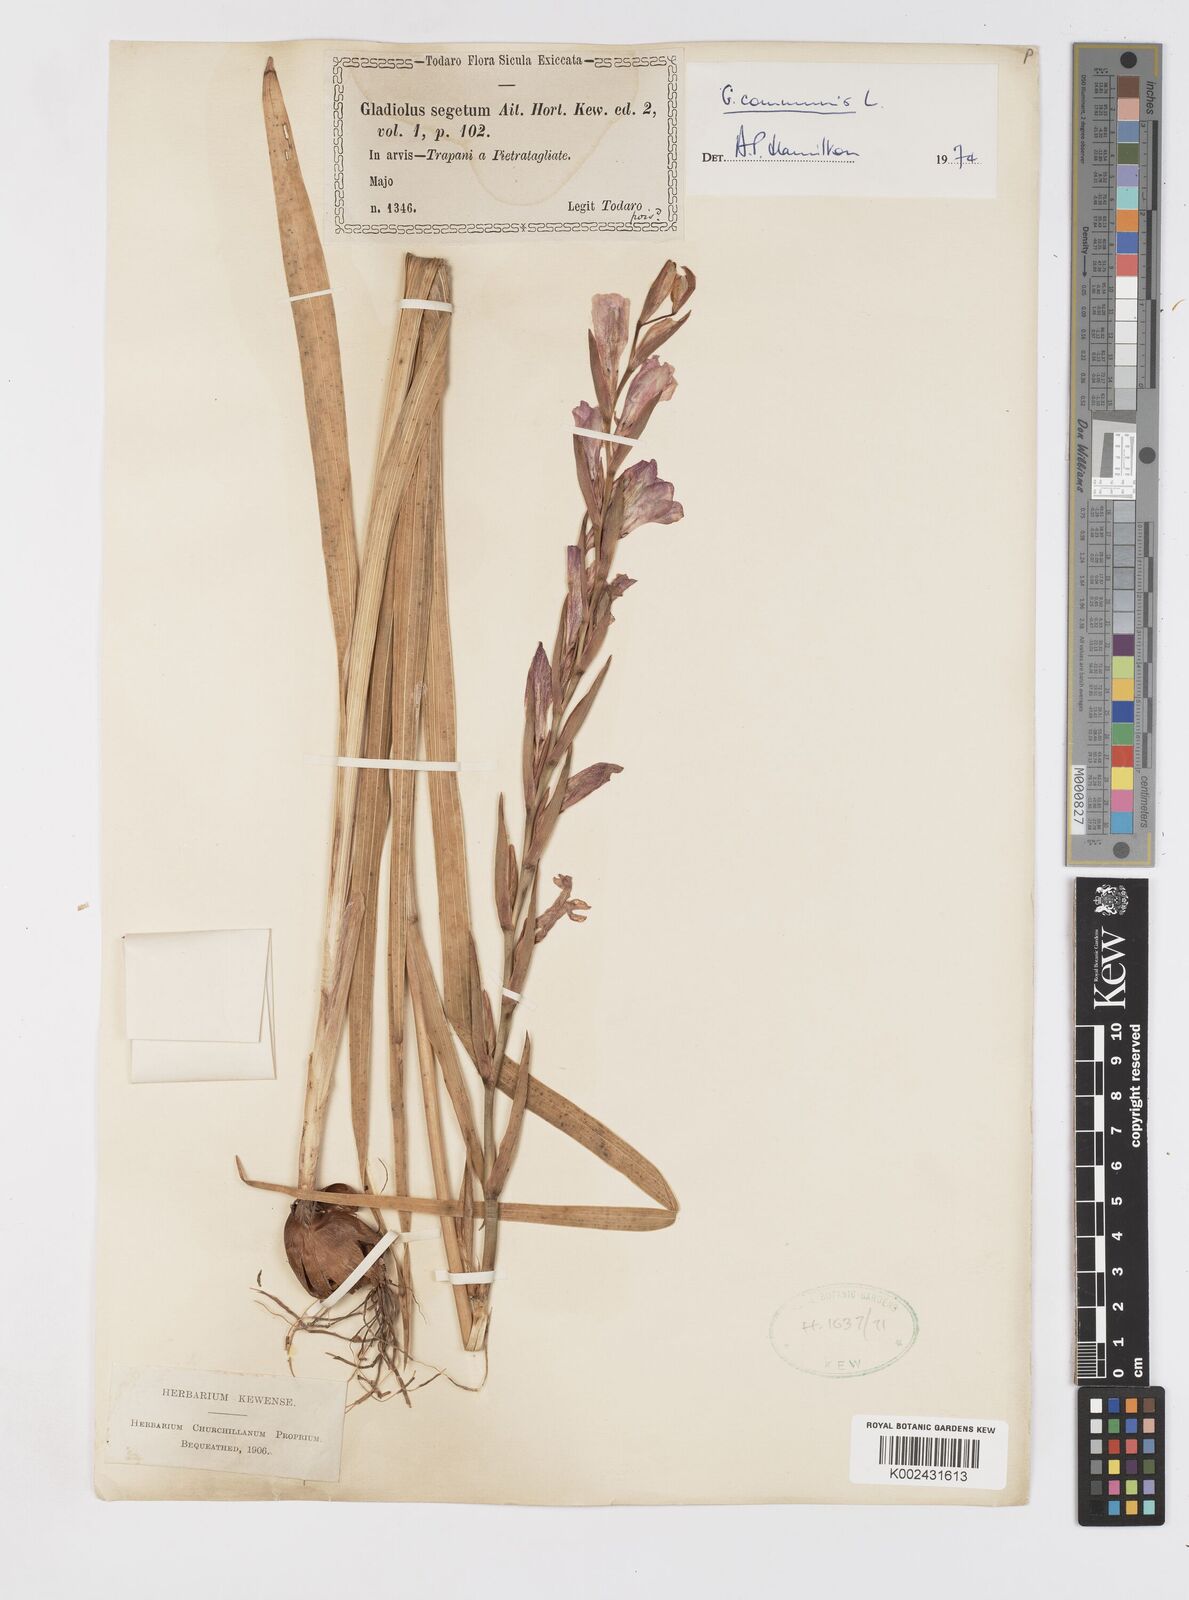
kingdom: Plantae
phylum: Tracheophyta
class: Liliopsida
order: Asparagales
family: Iridaceae
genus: Gladiolus
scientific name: Gladiolus communis
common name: Eastern gladiolus
